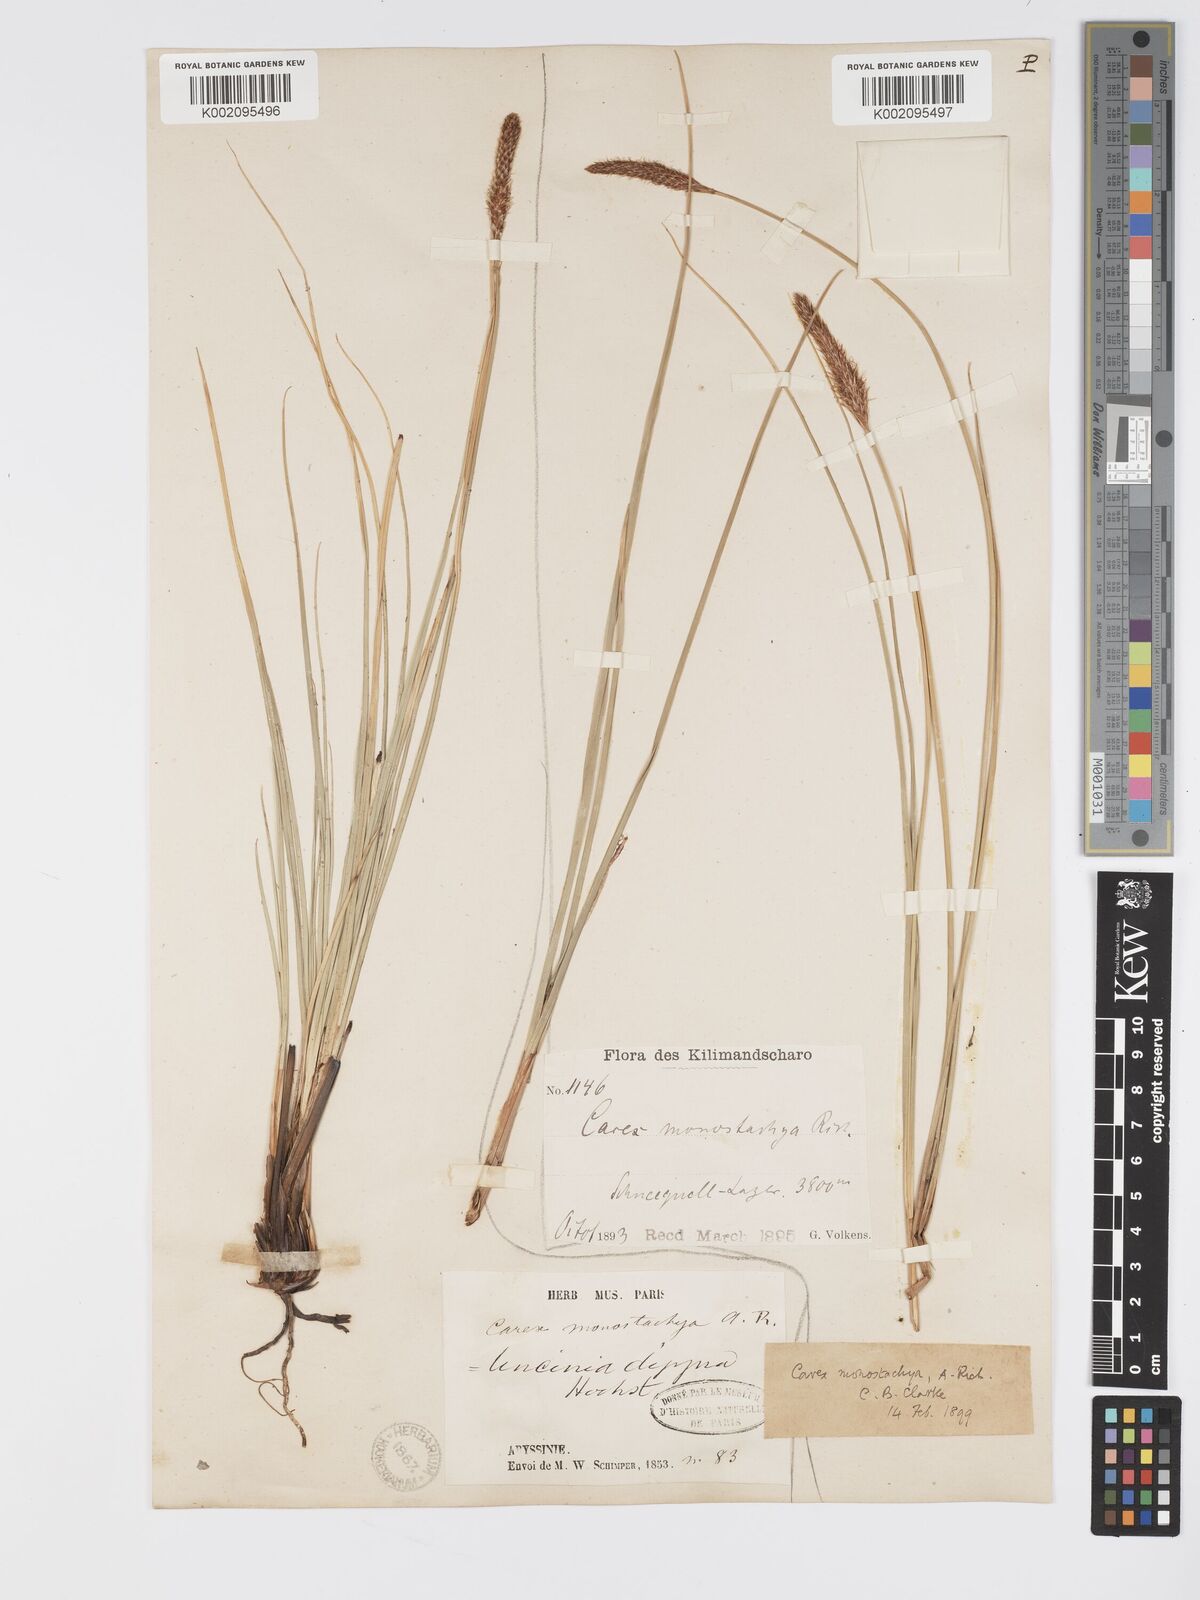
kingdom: Plantae
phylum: Tracheophyta
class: Liliopsida
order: Poales
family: Cyperaceae
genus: Carex
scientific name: Carex monostachya
